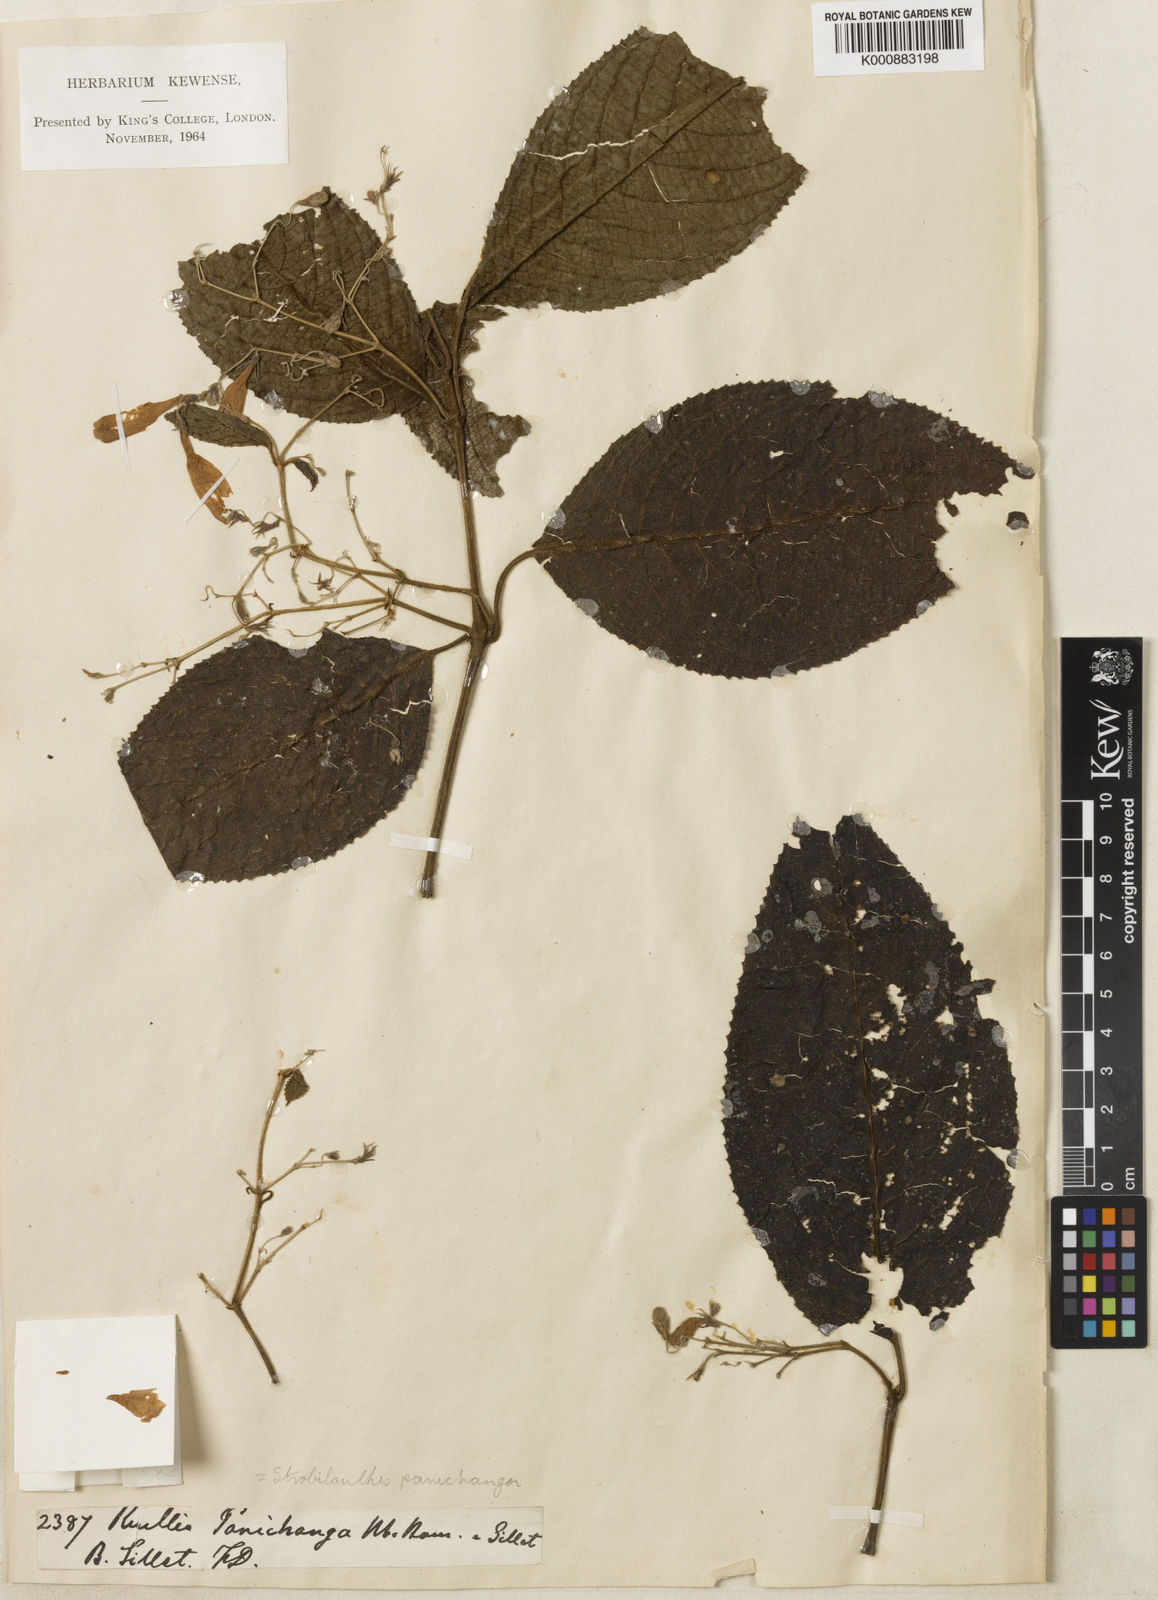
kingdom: Plantae
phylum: Tracheophyta
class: Magnoliopsida
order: Lamiales
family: Acanthaceae
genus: Strobilanthes
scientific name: Strobilanthes panichanga
